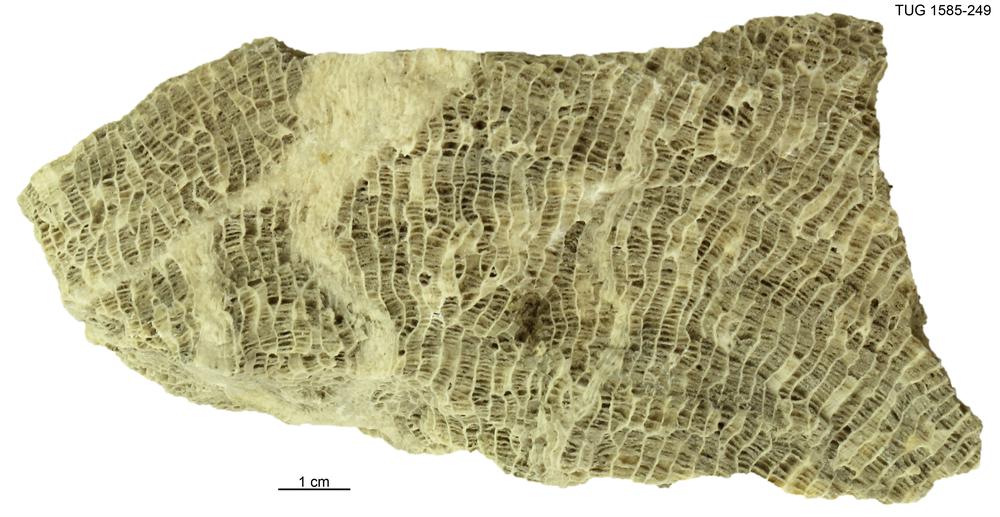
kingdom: Animalia
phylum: Cnidaria
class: Anthozoa
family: Favositidae
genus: Saffordophyllum
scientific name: Saffordophyllum
